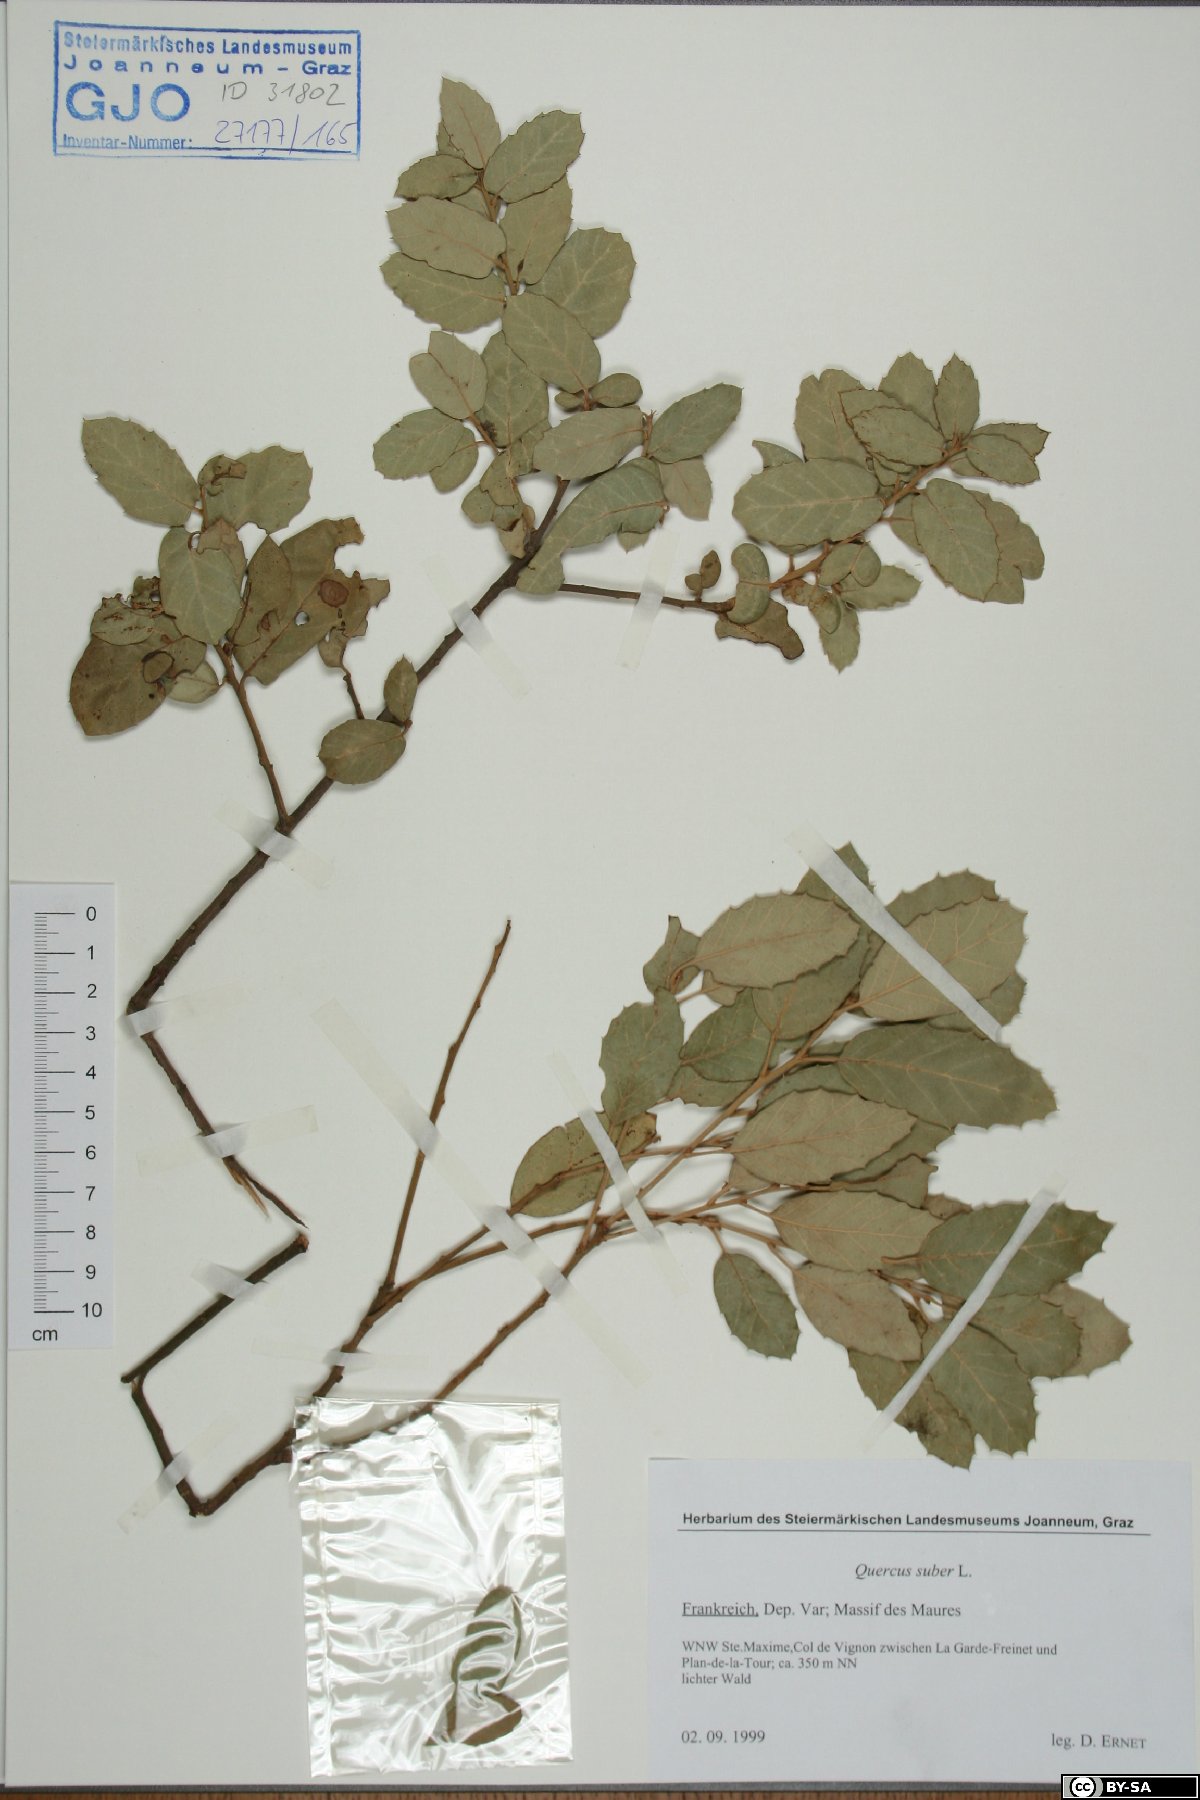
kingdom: Plantae
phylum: Tracheophyta
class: Magnoliopsida
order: Fagales
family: Fagaceae
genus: Quercus
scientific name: Quercus suber
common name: Cork oak
